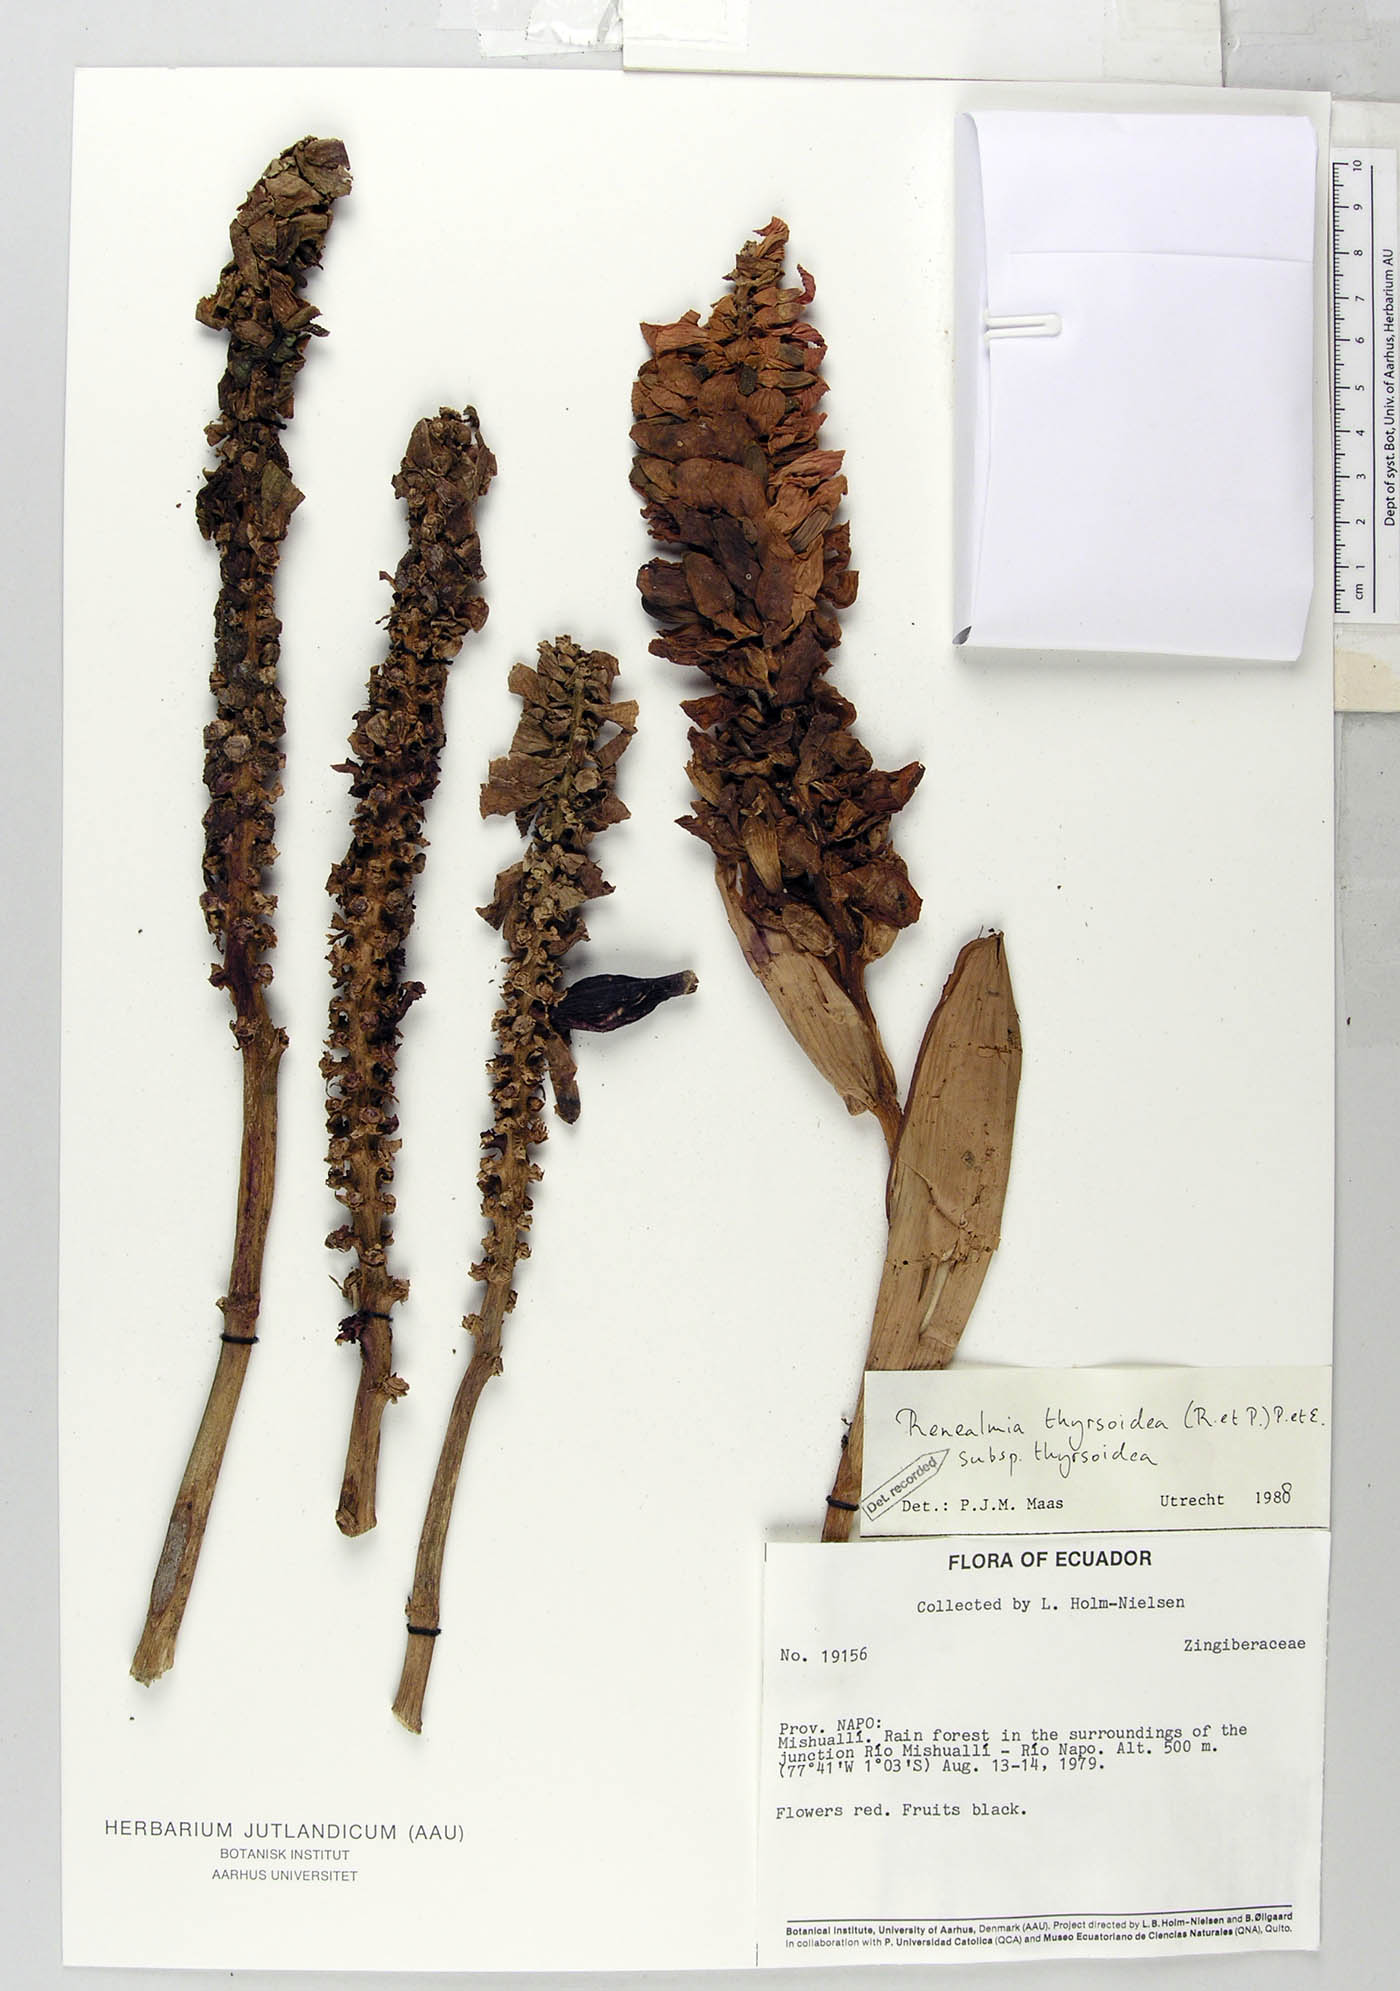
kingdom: Plantae
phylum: Tracheophyta
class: Liliopsida
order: Zingiberales
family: Zingiberaceae
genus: Renealmia
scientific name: Renealmia thyrsoidea
